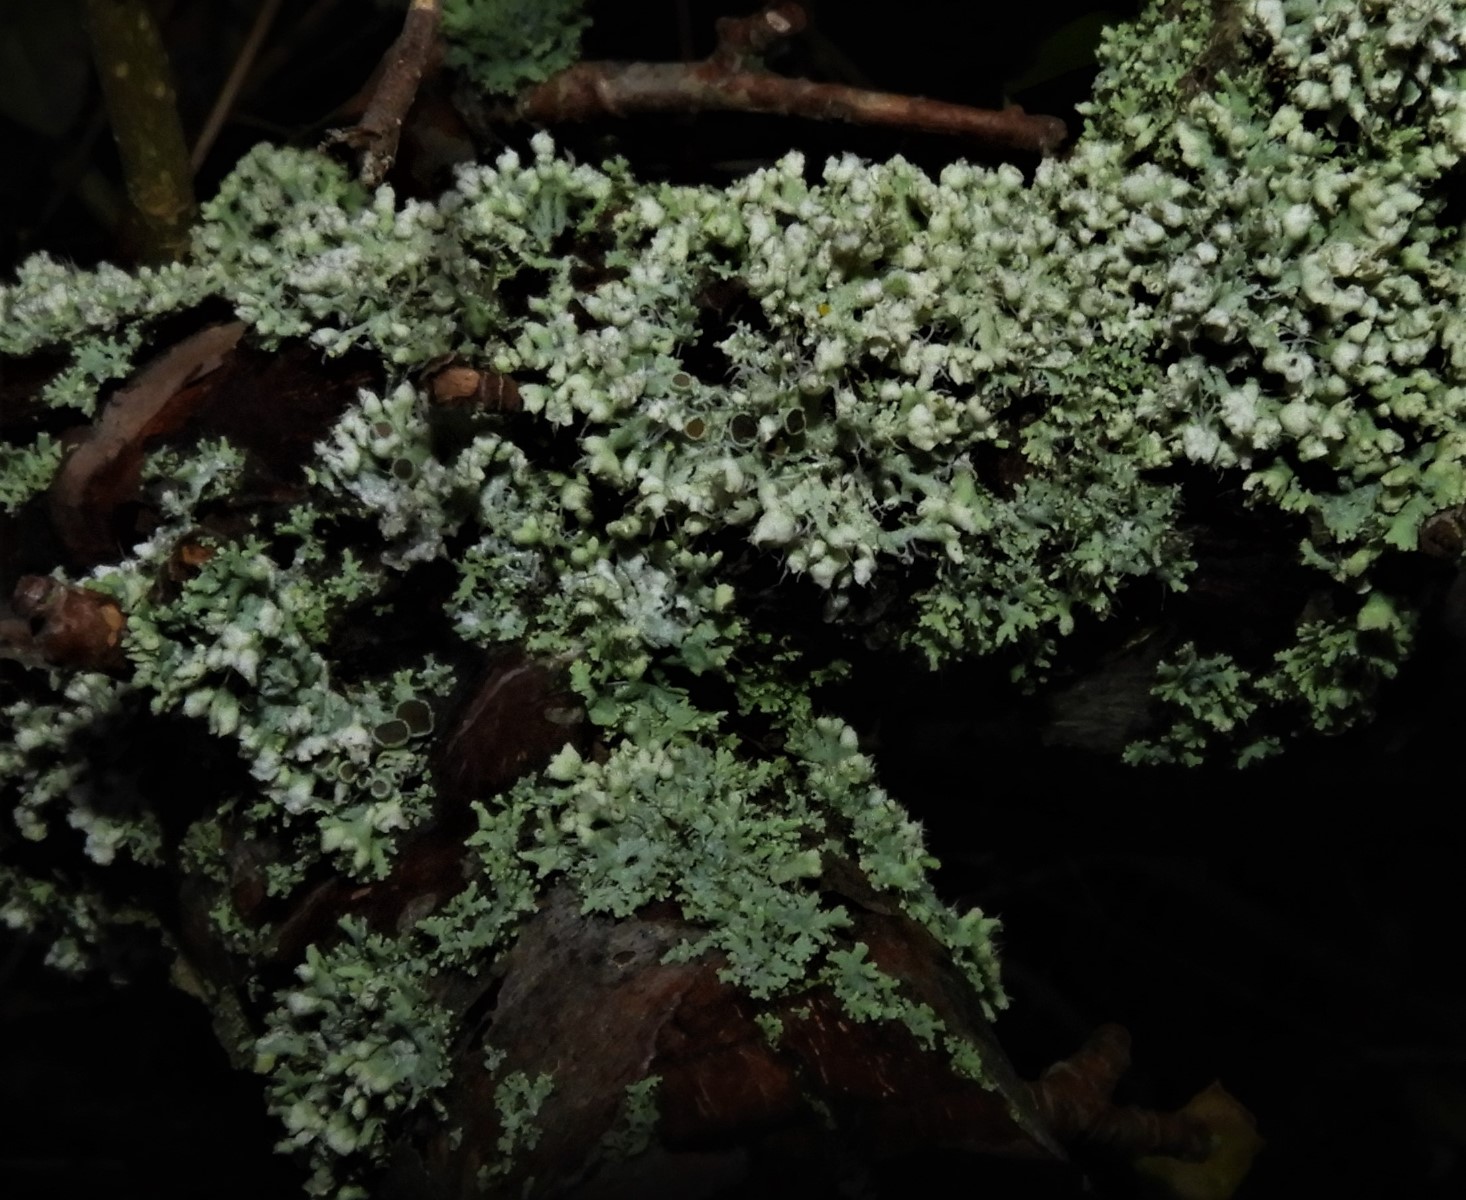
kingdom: Fungi
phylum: Ascomycota
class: Lecanoromycetes
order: Caliciales
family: Physciaceae
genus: Physcia
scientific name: Physcia adscendens
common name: hætte-rosetlav
